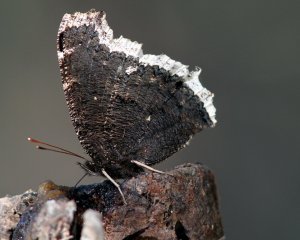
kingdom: Animalia
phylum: Arthropoda
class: Insecta
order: Lepidoptera
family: Nymphalidae
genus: Nymphalis
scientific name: Nymphalis antiopa
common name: Mourning Cloak
